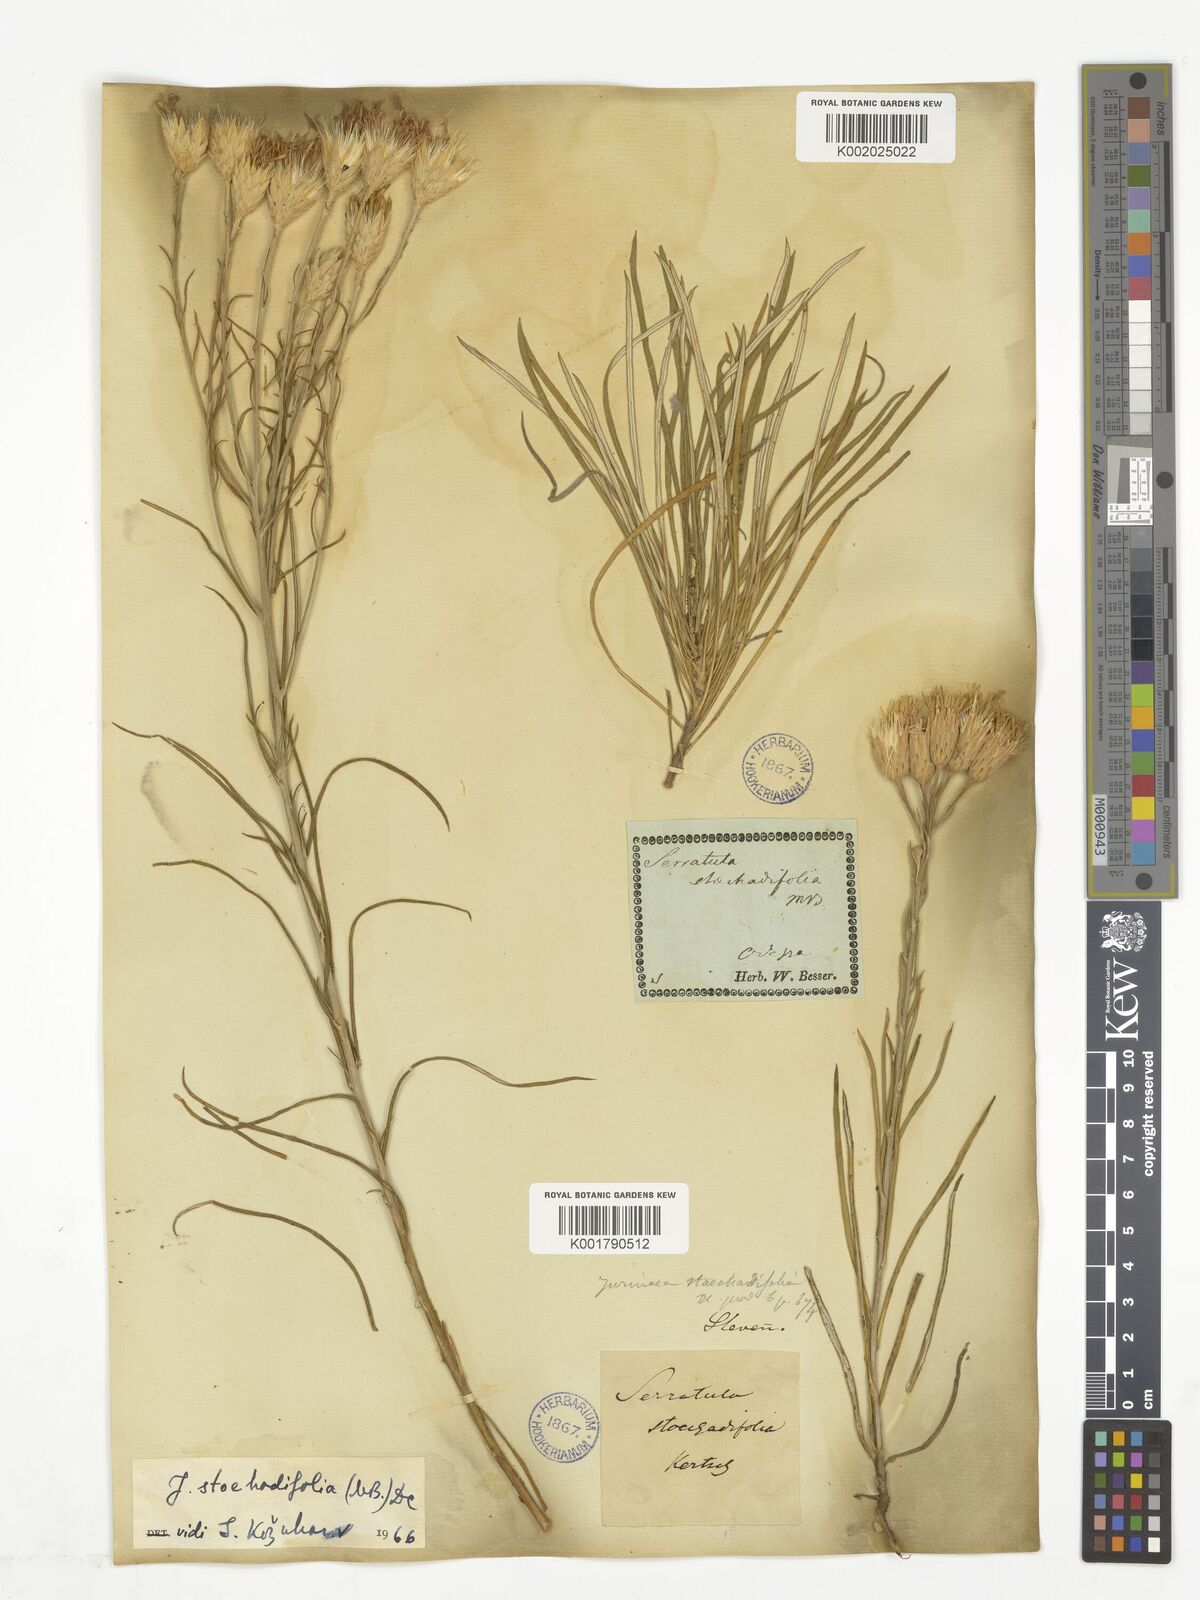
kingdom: Plantae
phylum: Tracheophyta
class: Magnoliopsida
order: Asterales
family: Asteraceae
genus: Jurinea
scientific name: Jurinea stoechadifolia
